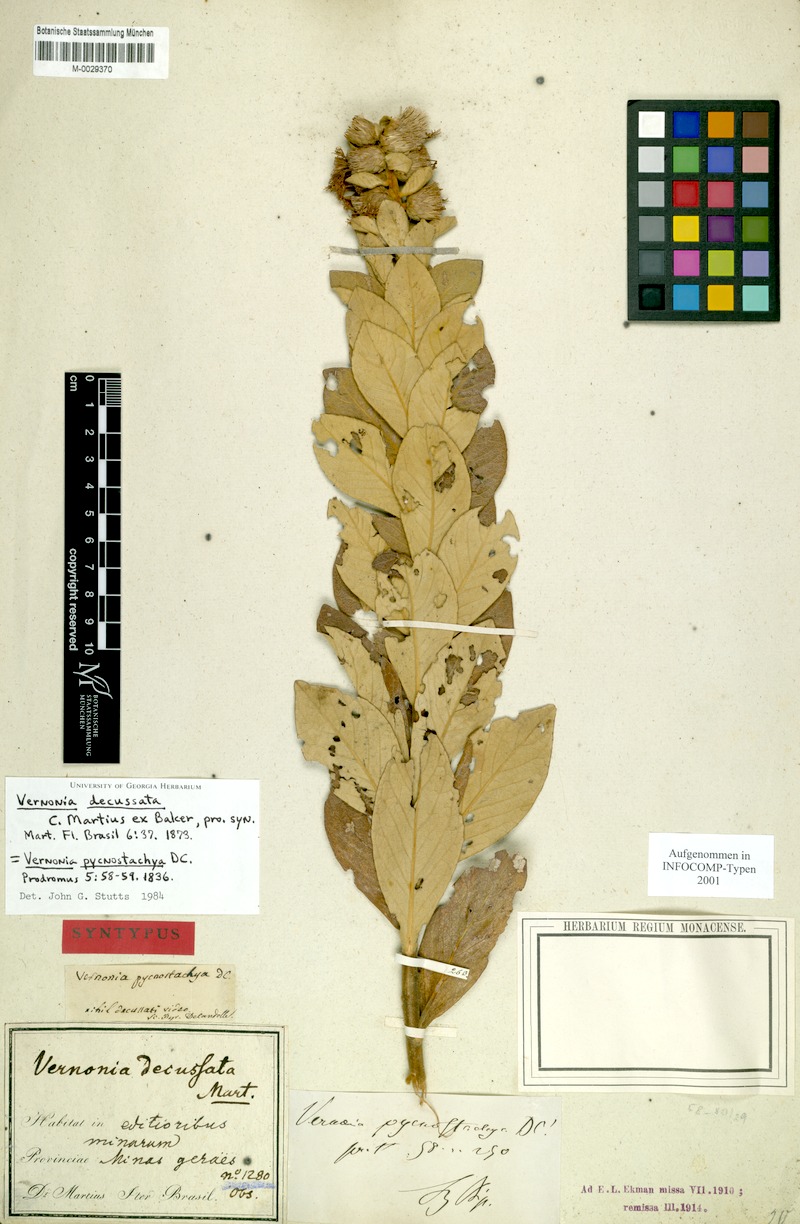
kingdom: Plantae
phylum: Tracheophyta
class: Magnoliopsida
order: Asterales
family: Asteraceae
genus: Lessingianthus
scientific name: Lessingianthus pycnostachyus
